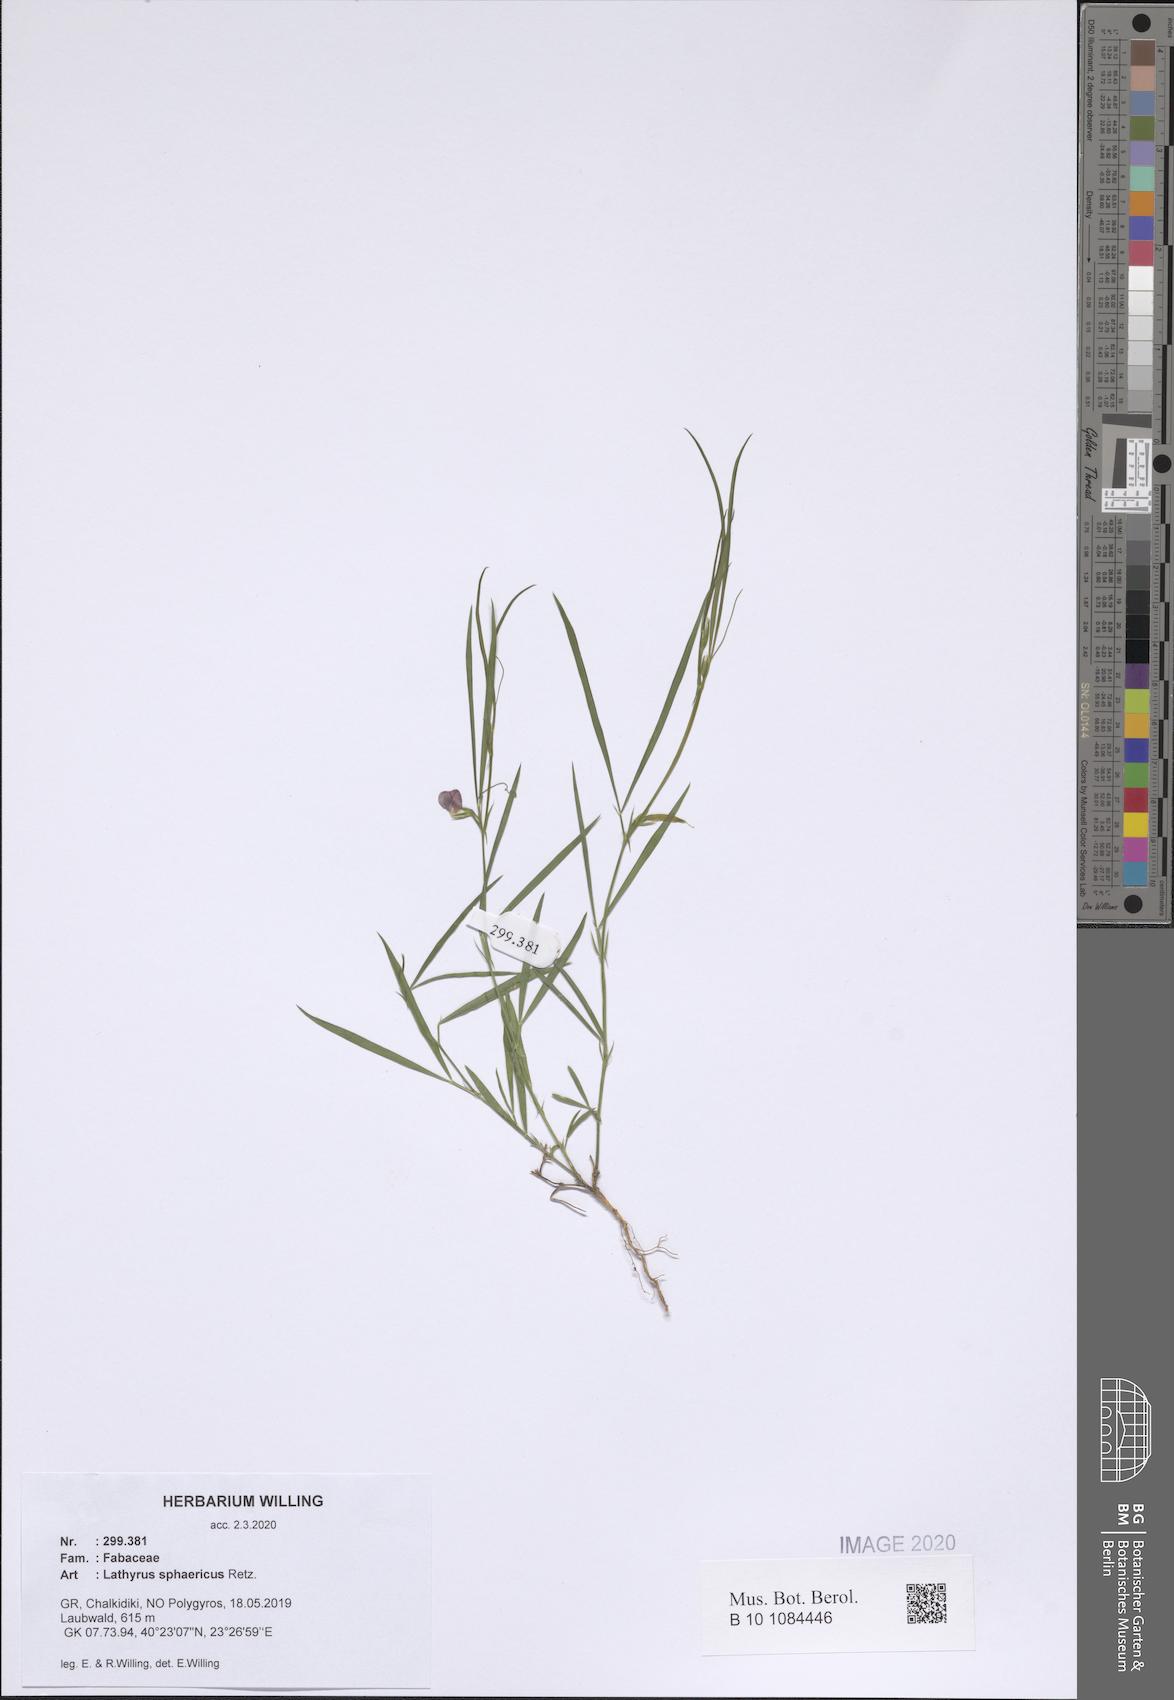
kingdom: Plantae
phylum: Tracheophyta
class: Magnoliopsida
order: Fabales
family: Fabaceae
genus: Lathyrus
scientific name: Lathyrus sphaericus
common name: Grass pea
